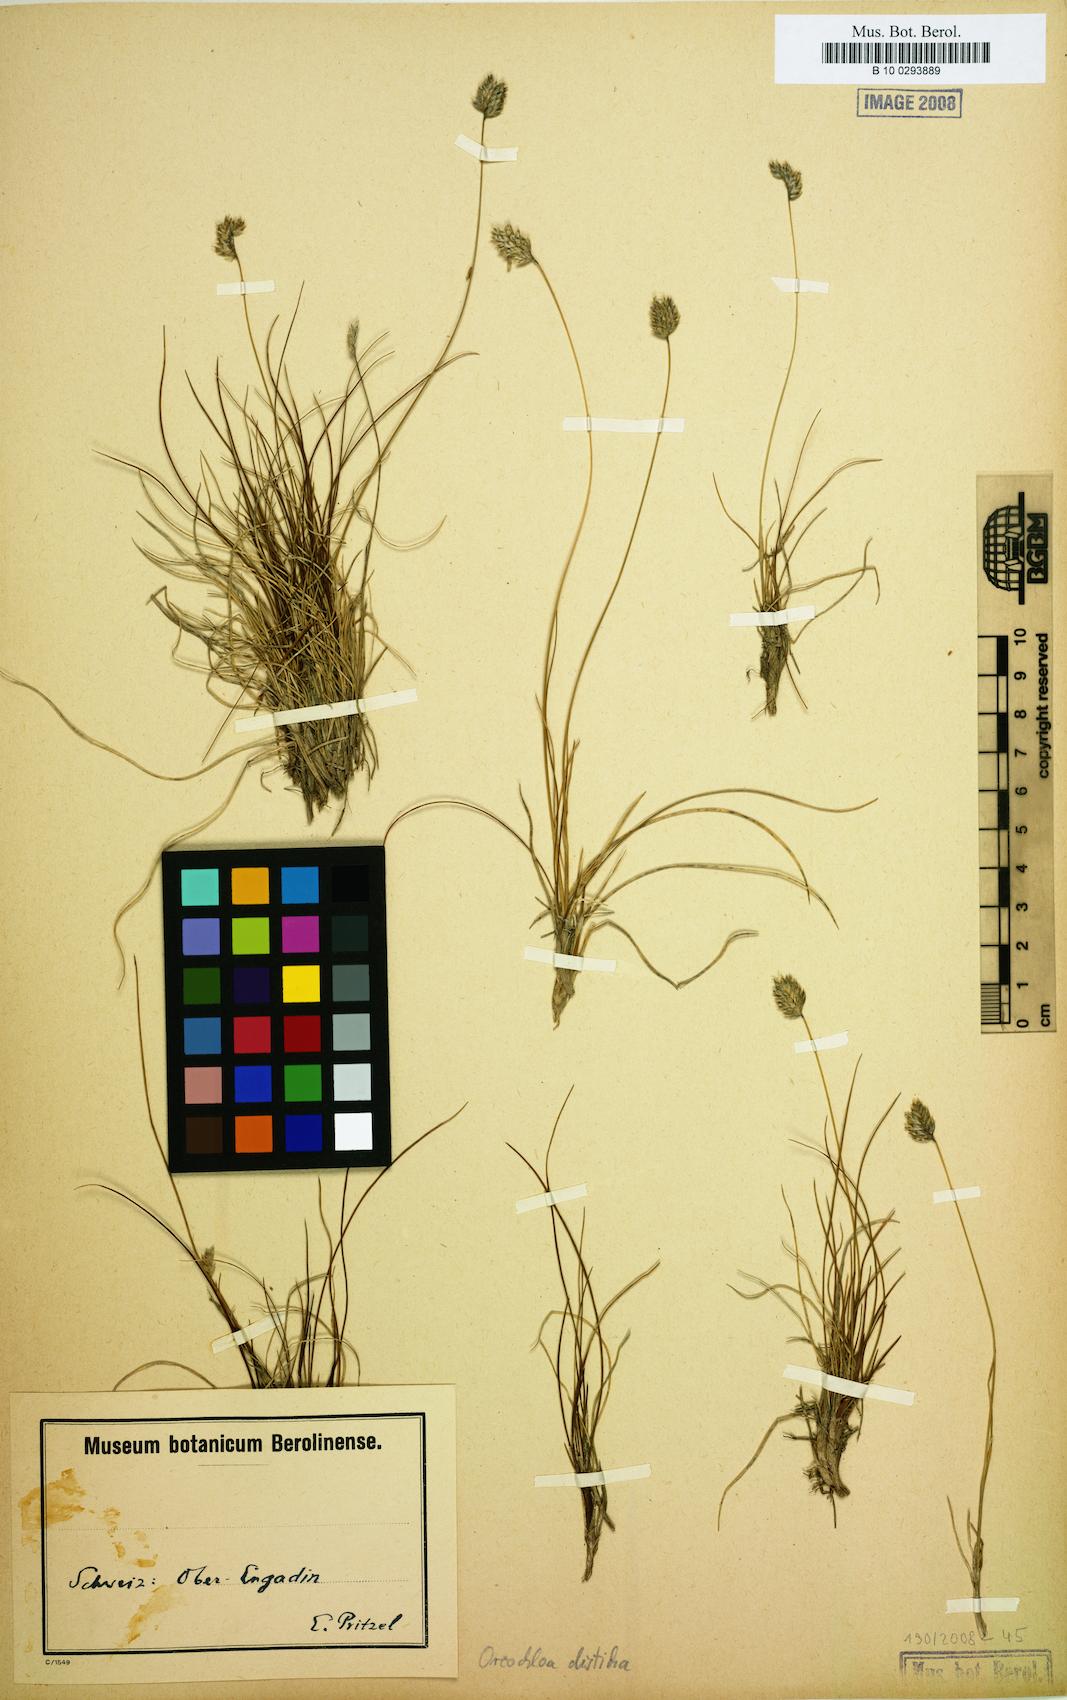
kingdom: Plantae
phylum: Tracheophyta
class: Liliopsida
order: Poales
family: Poaceae
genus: Oreochloa
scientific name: Oreochloa disticha
